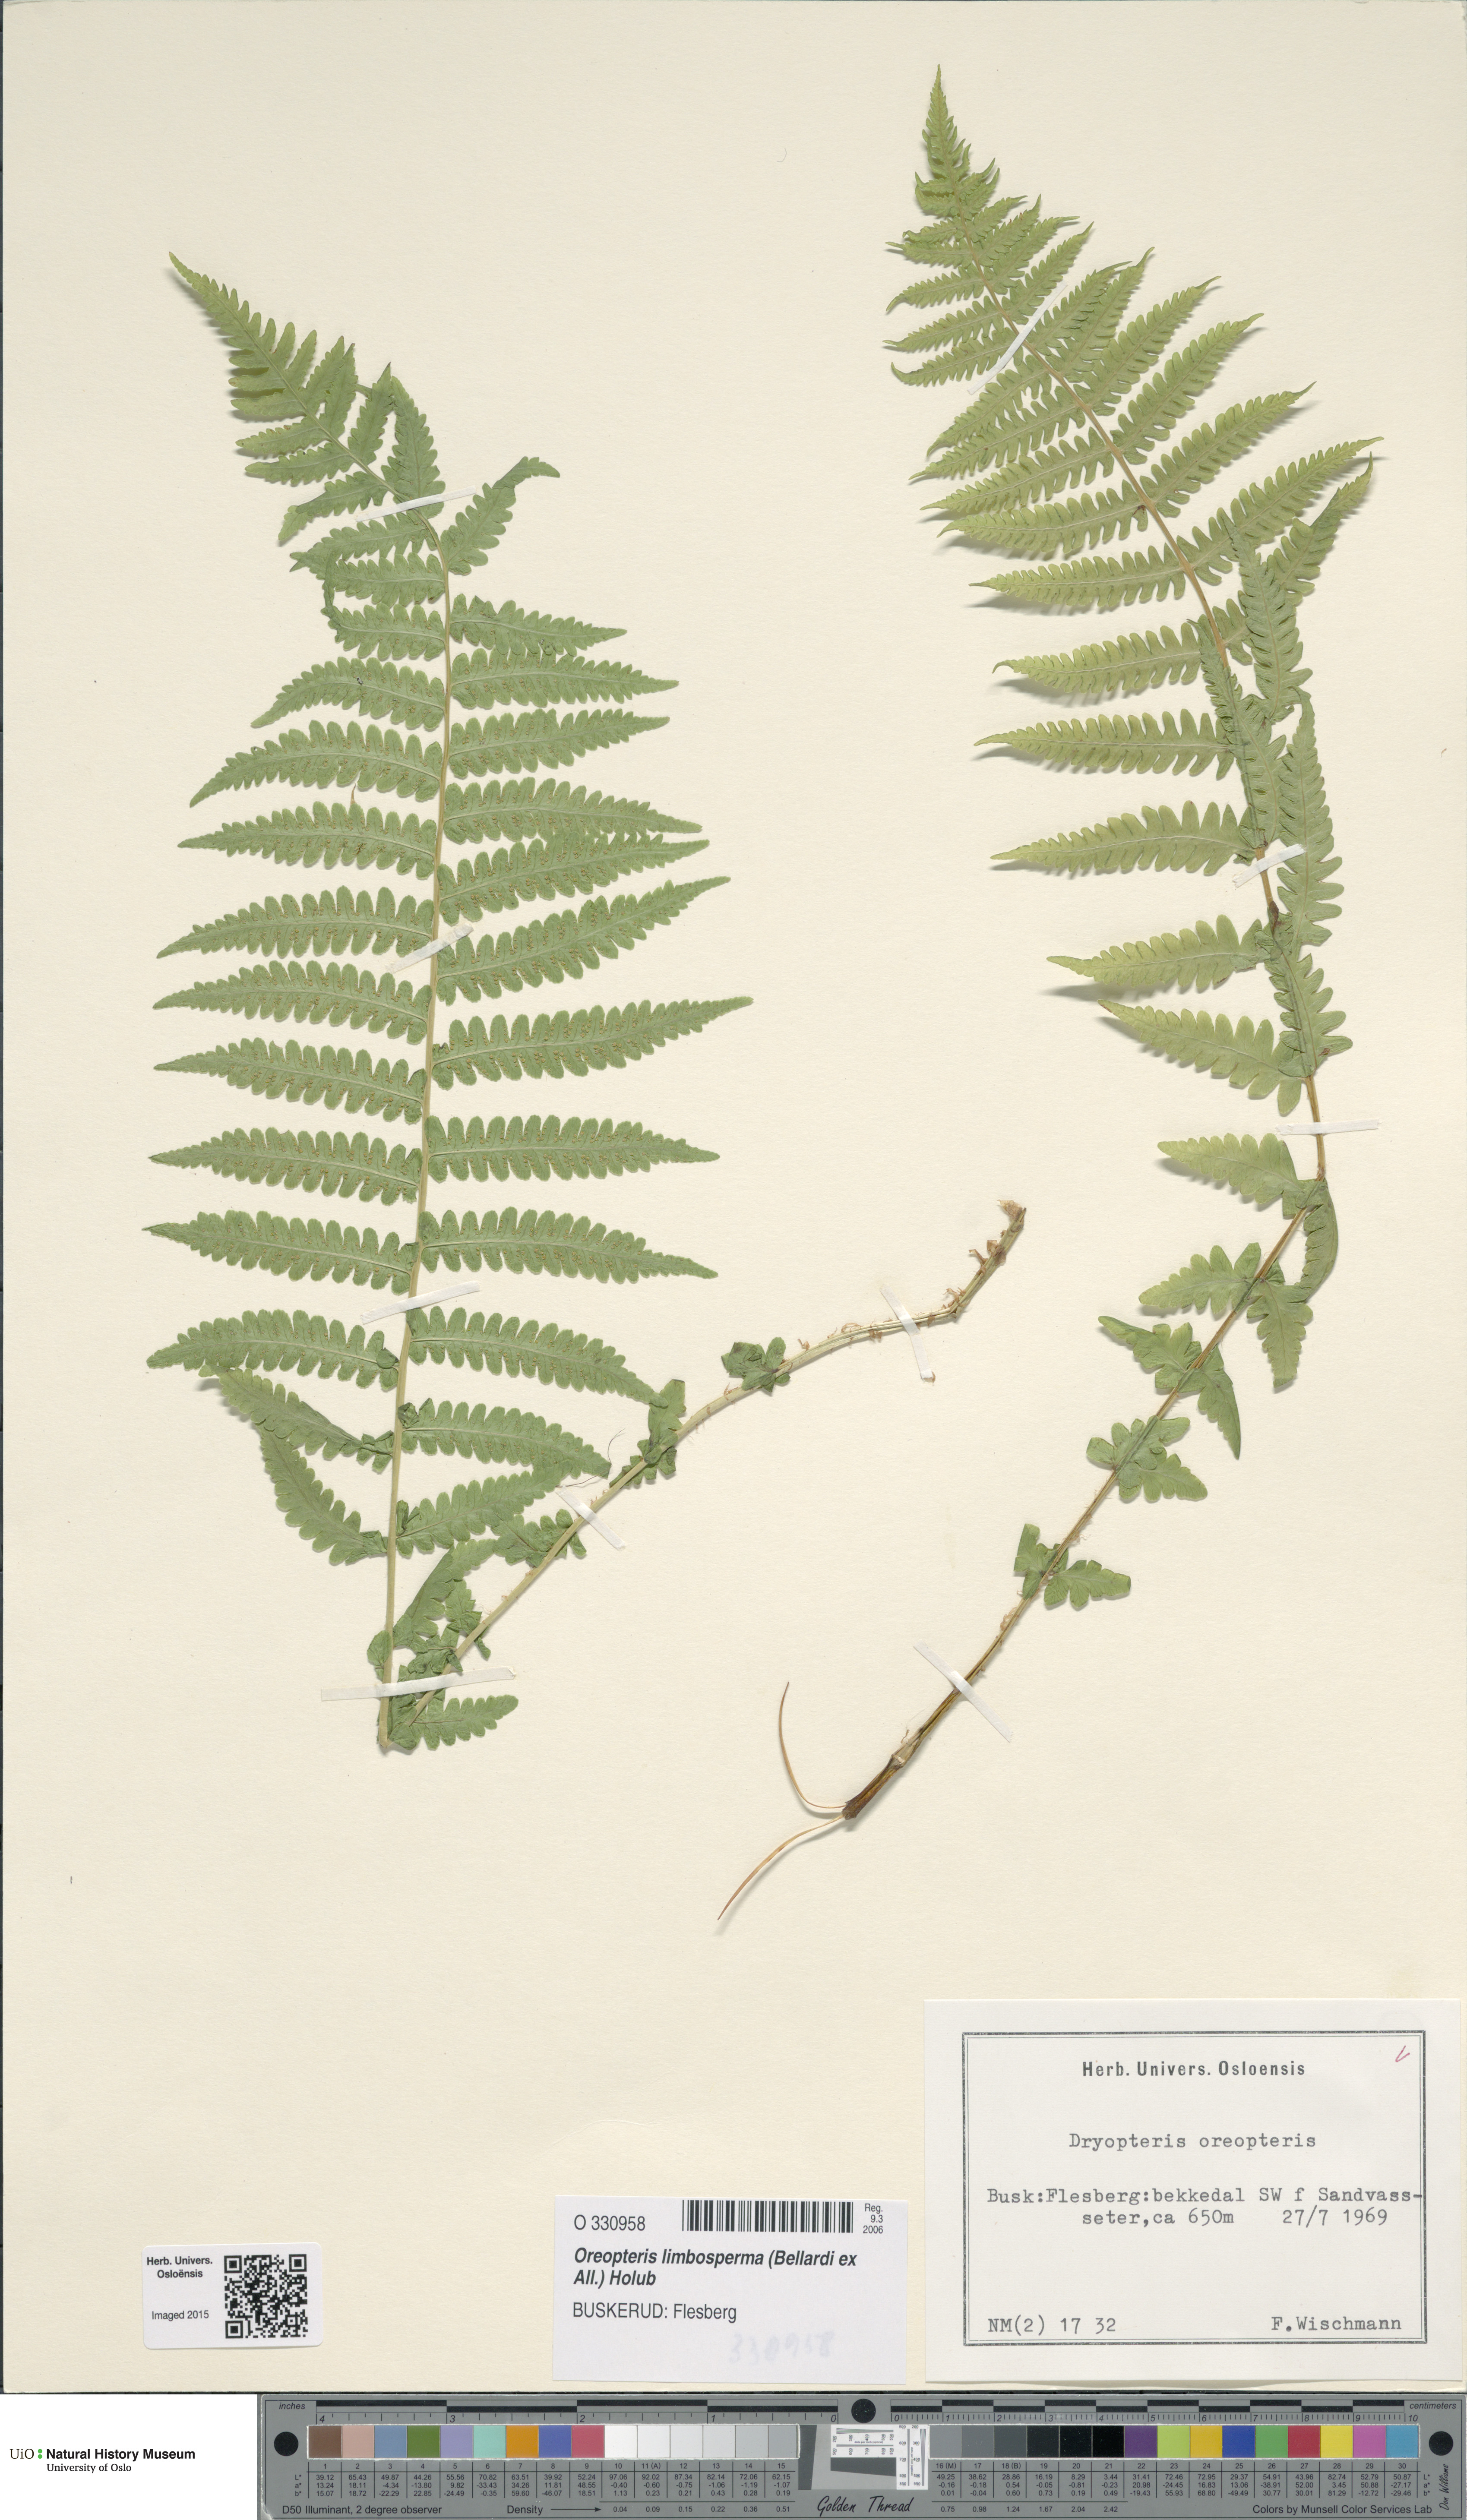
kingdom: Plantae
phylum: Tracheophyta
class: Polypodiopsida
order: Polypodiales
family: Thelypteridaceae
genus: Oreopteris
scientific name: Oreopteris limbosperma
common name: Lemon-scented fern
